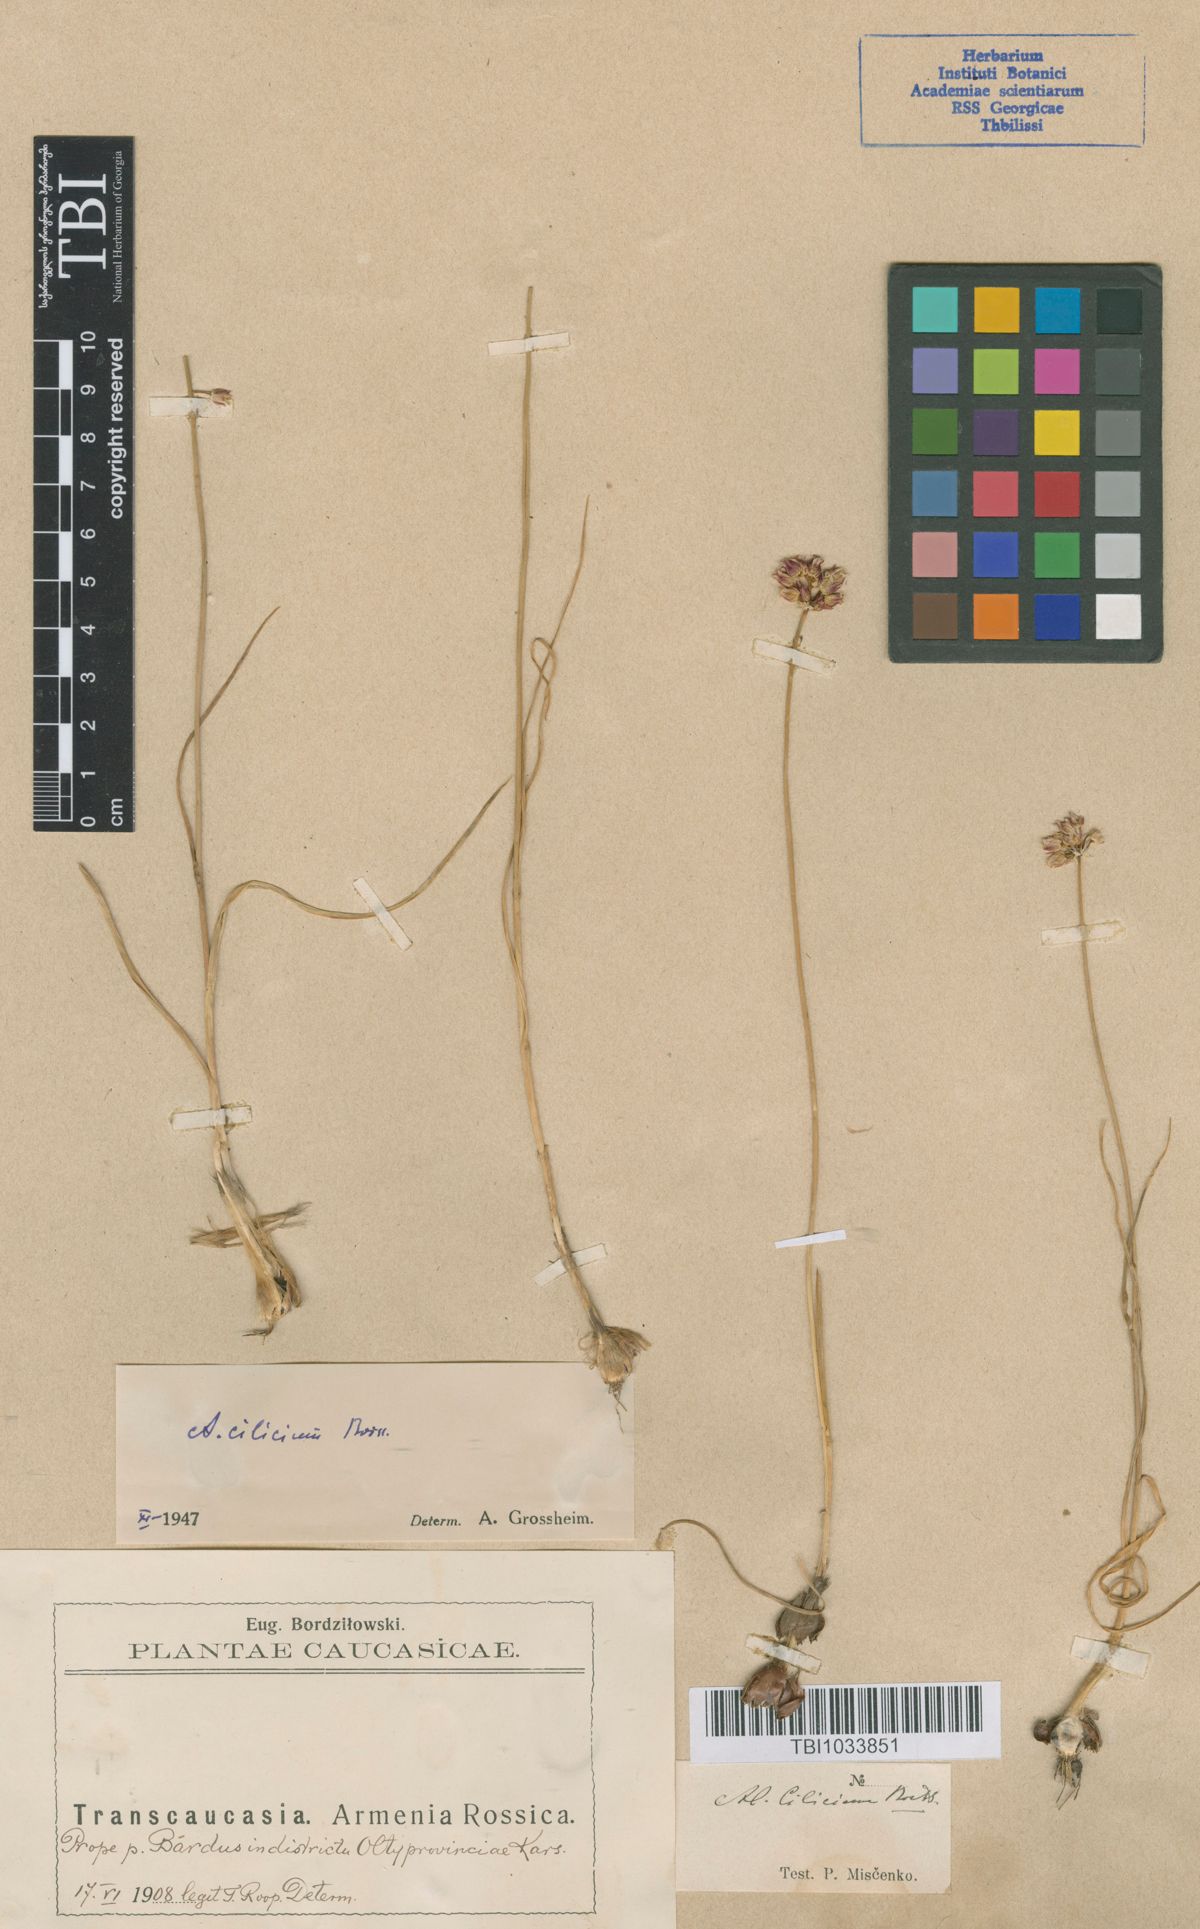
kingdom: Plantae
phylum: Tracheophyta
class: Liliopsida
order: Asparagales
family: Amaryllidaceae
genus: Allium
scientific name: Allium rotundum
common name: Sand leek
